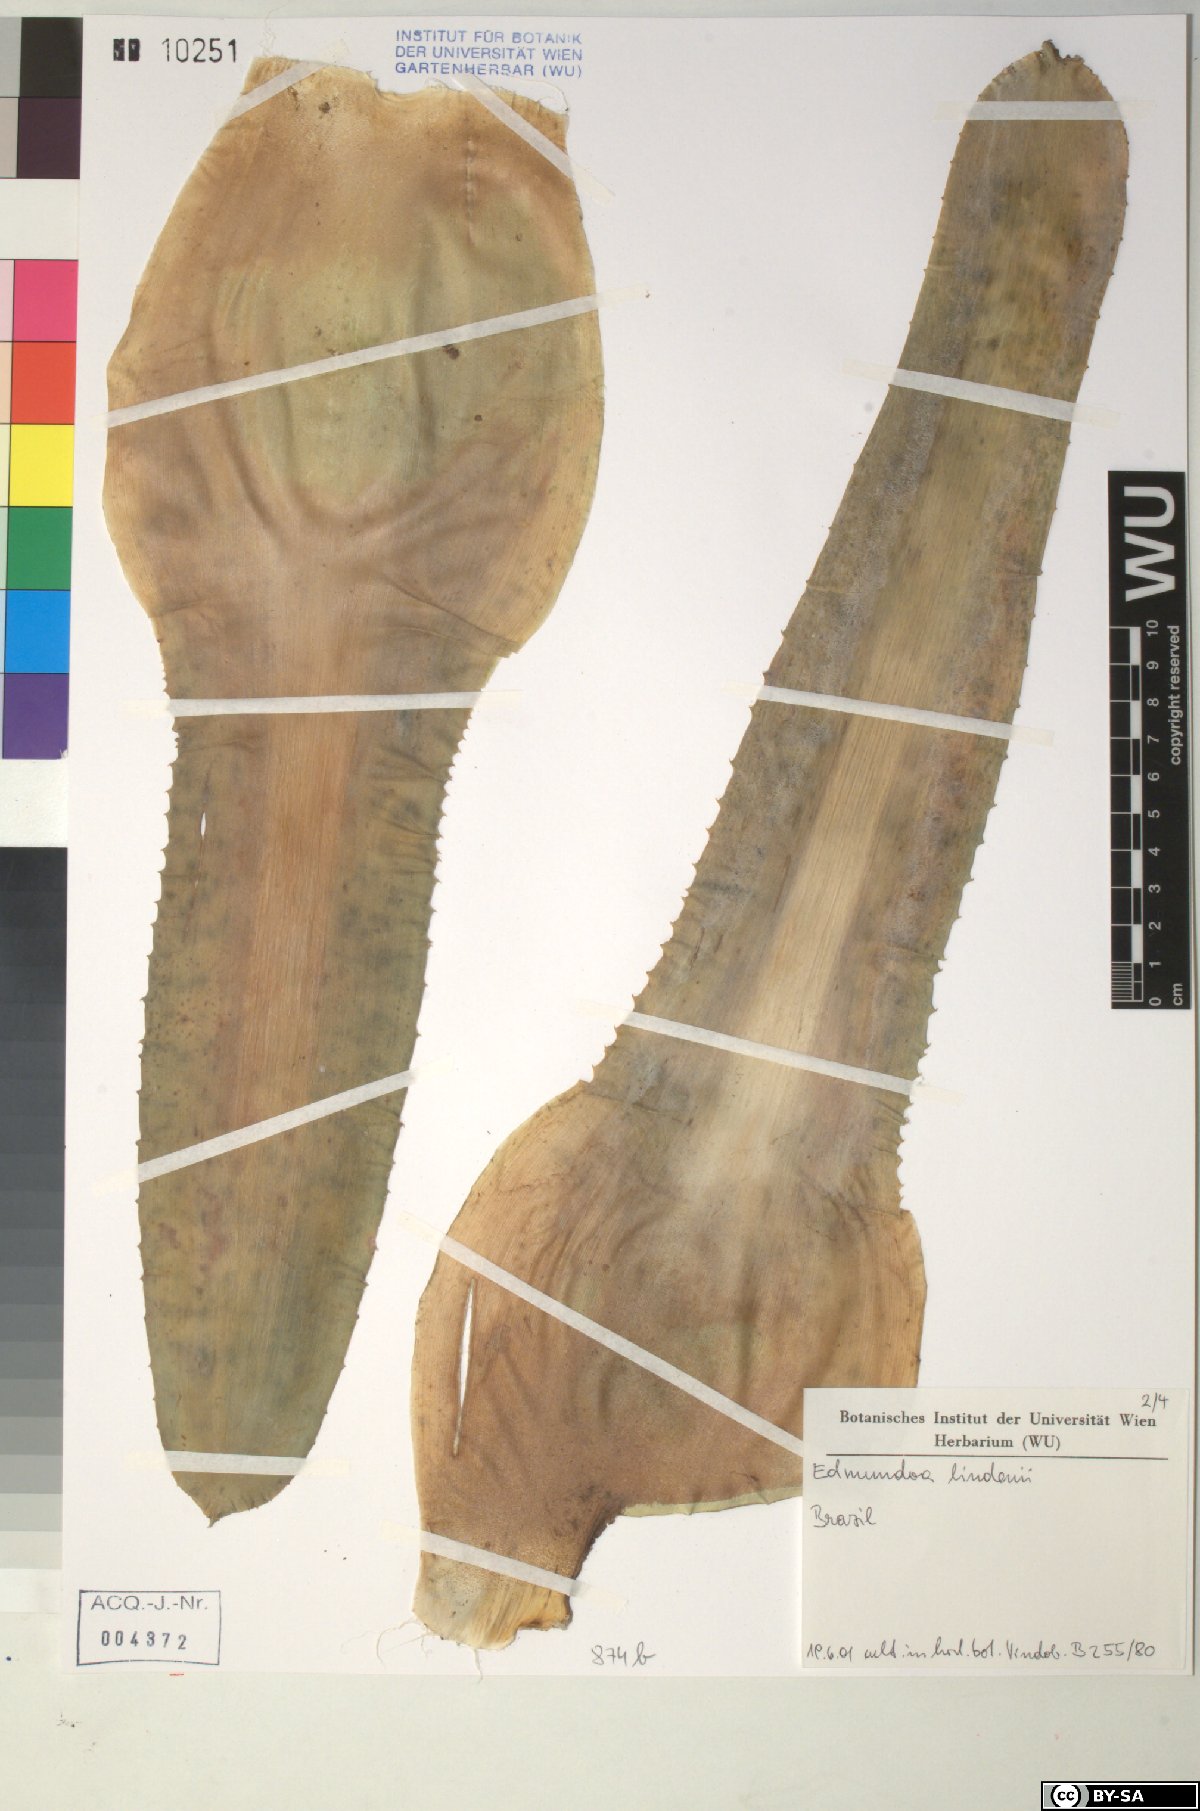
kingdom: Plantae
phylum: Tracheophyta
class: Liliopsida
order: Poales
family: Bromeliaceae
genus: Edmundoa
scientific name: Edmundoa
